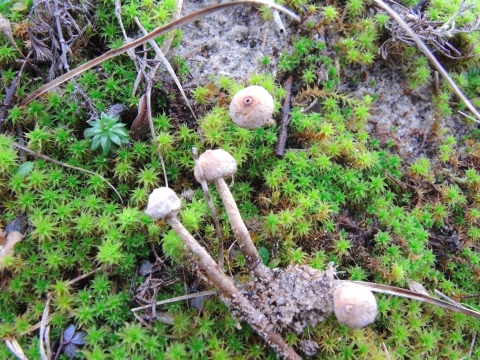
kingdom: Fungi
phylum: Basidiomycota
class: Agaricomycetes
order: Agaricales
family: Agaricaceae
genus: Tulostoma
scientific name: Tulostoma brumale
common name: vinter-stilkbovist
